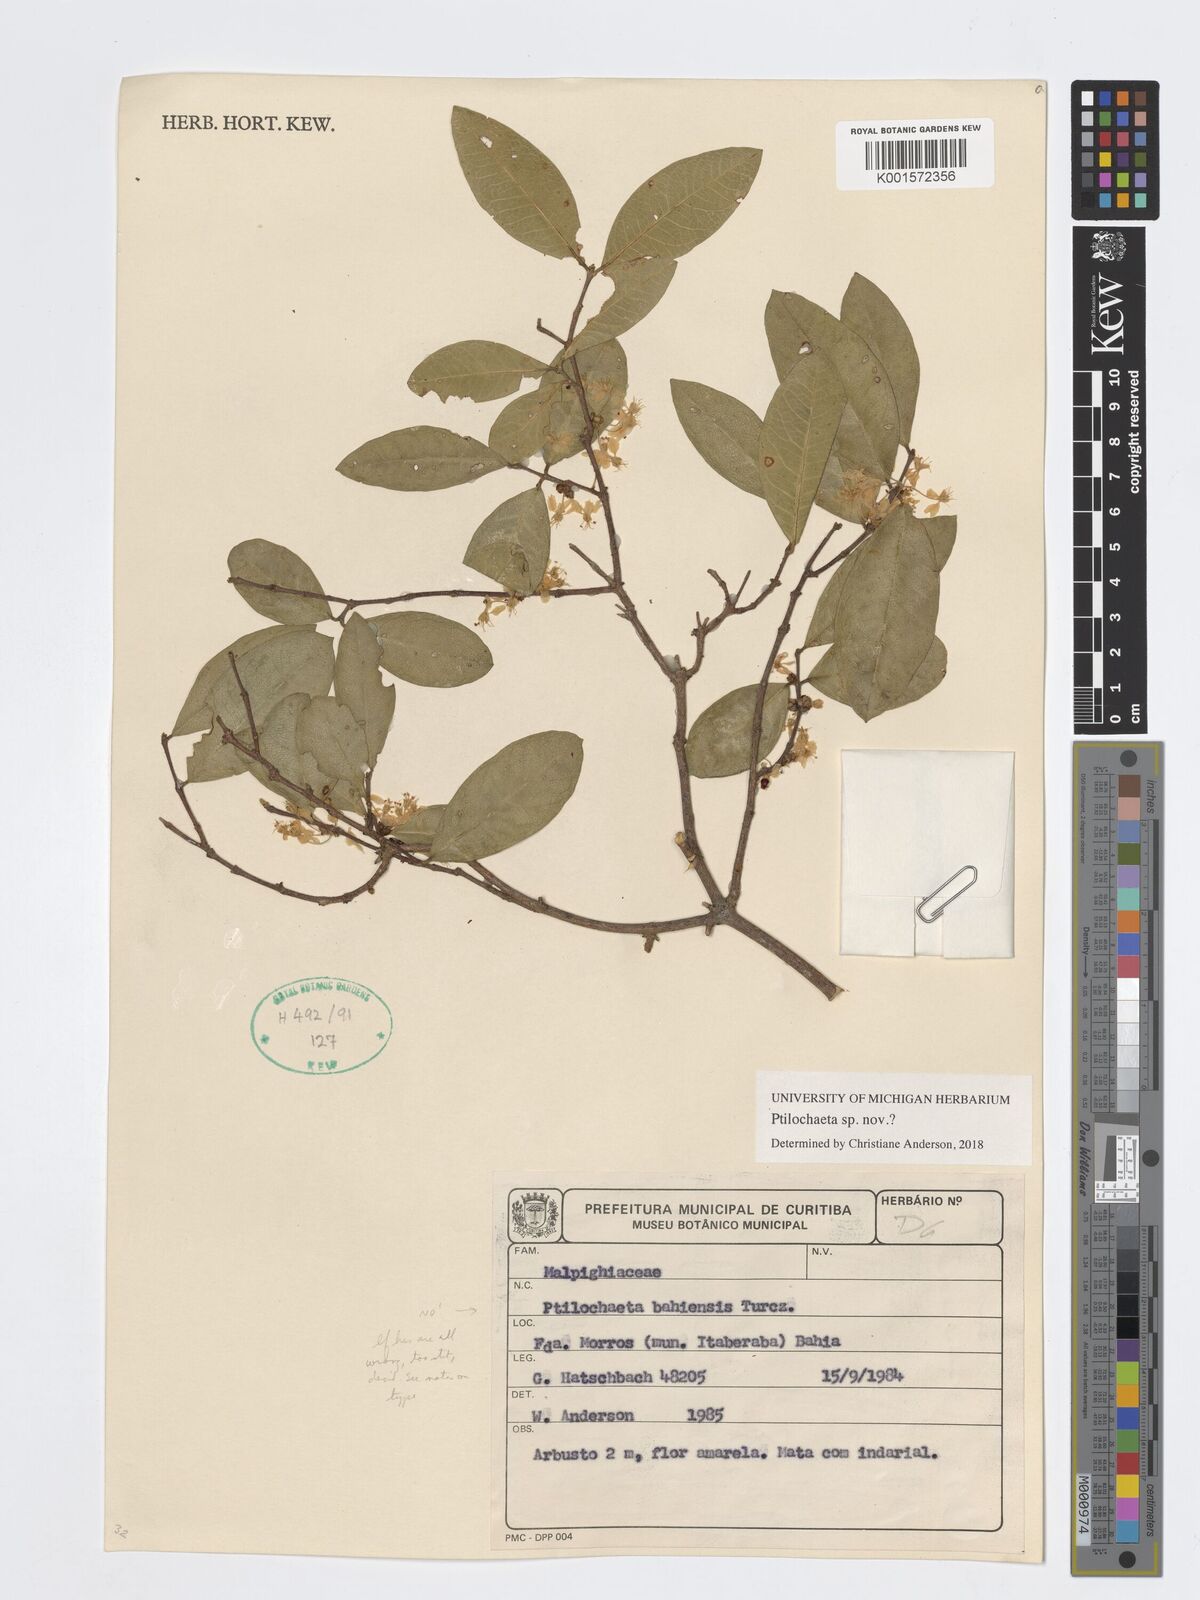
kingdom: Plantae
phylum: Tracheophyta
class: Magnoliopsida
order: Malpighiales
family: Malpighiaceae
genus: Ptilochaeta
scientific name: Ptilochaeta
